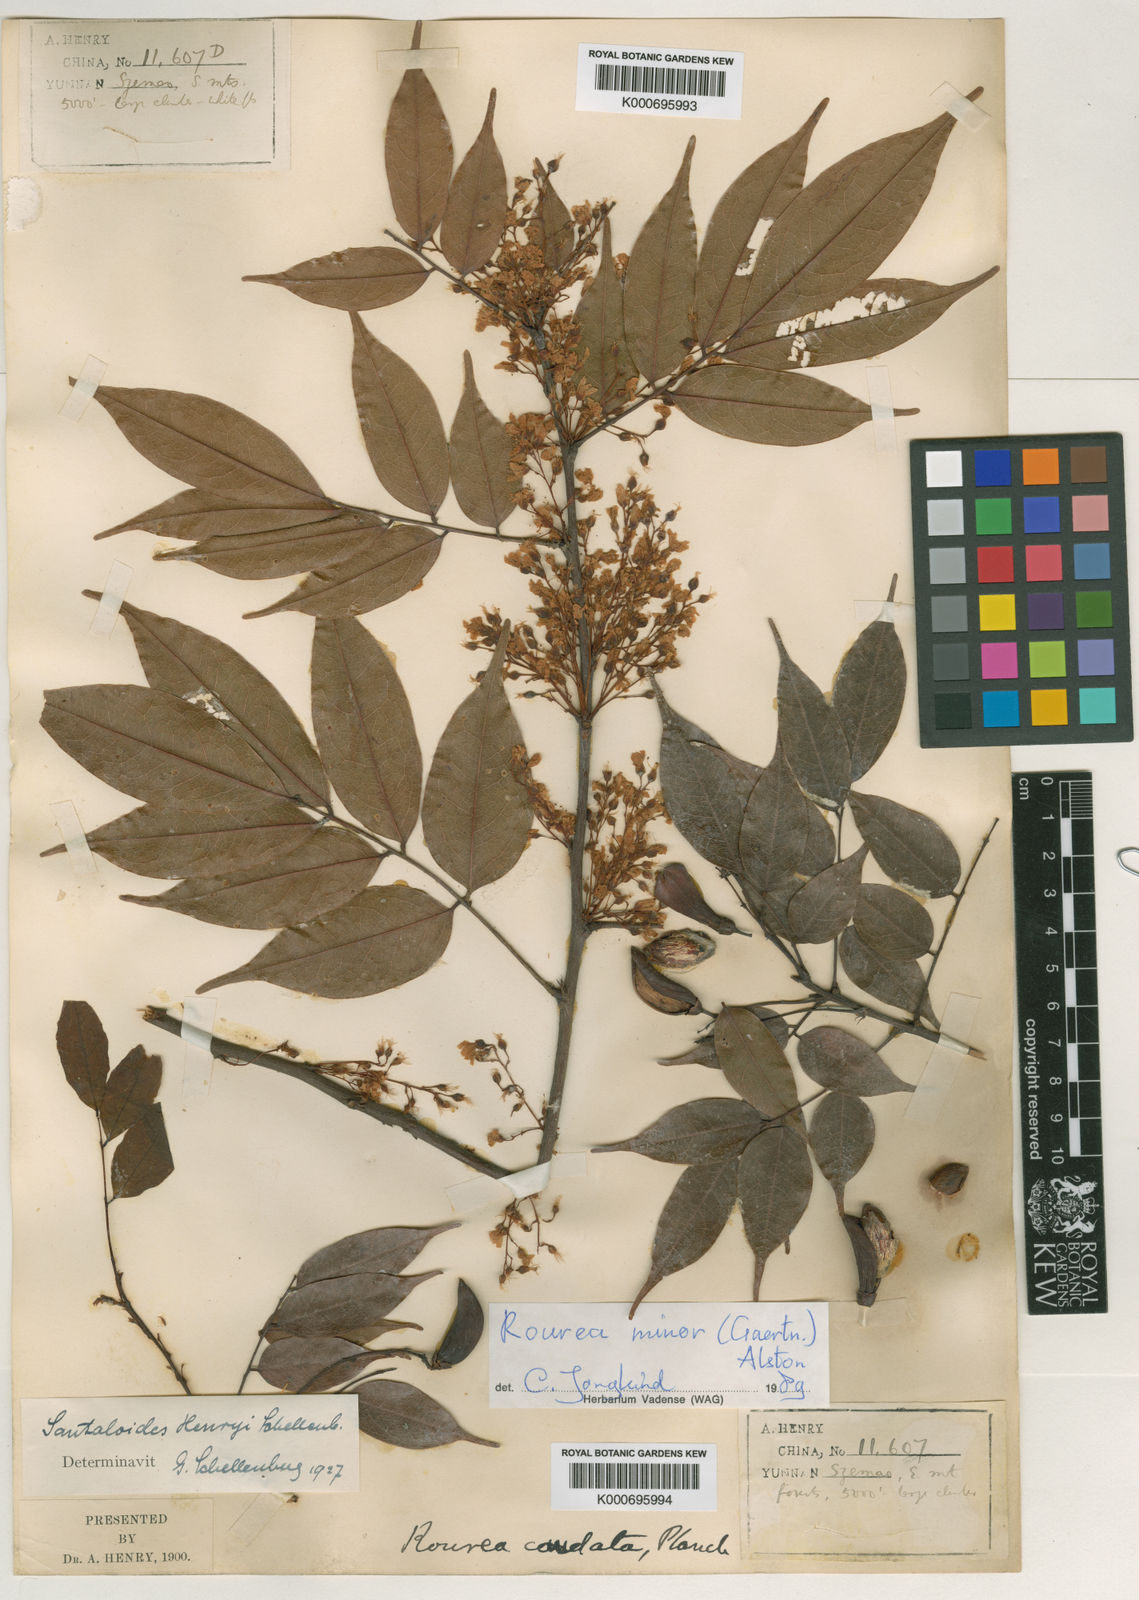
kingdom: Plantae
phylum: Tracheophyta
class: Magnoliopsida
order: Oxalidales
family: Connaraceae
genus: Rourea
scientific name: Rourea
